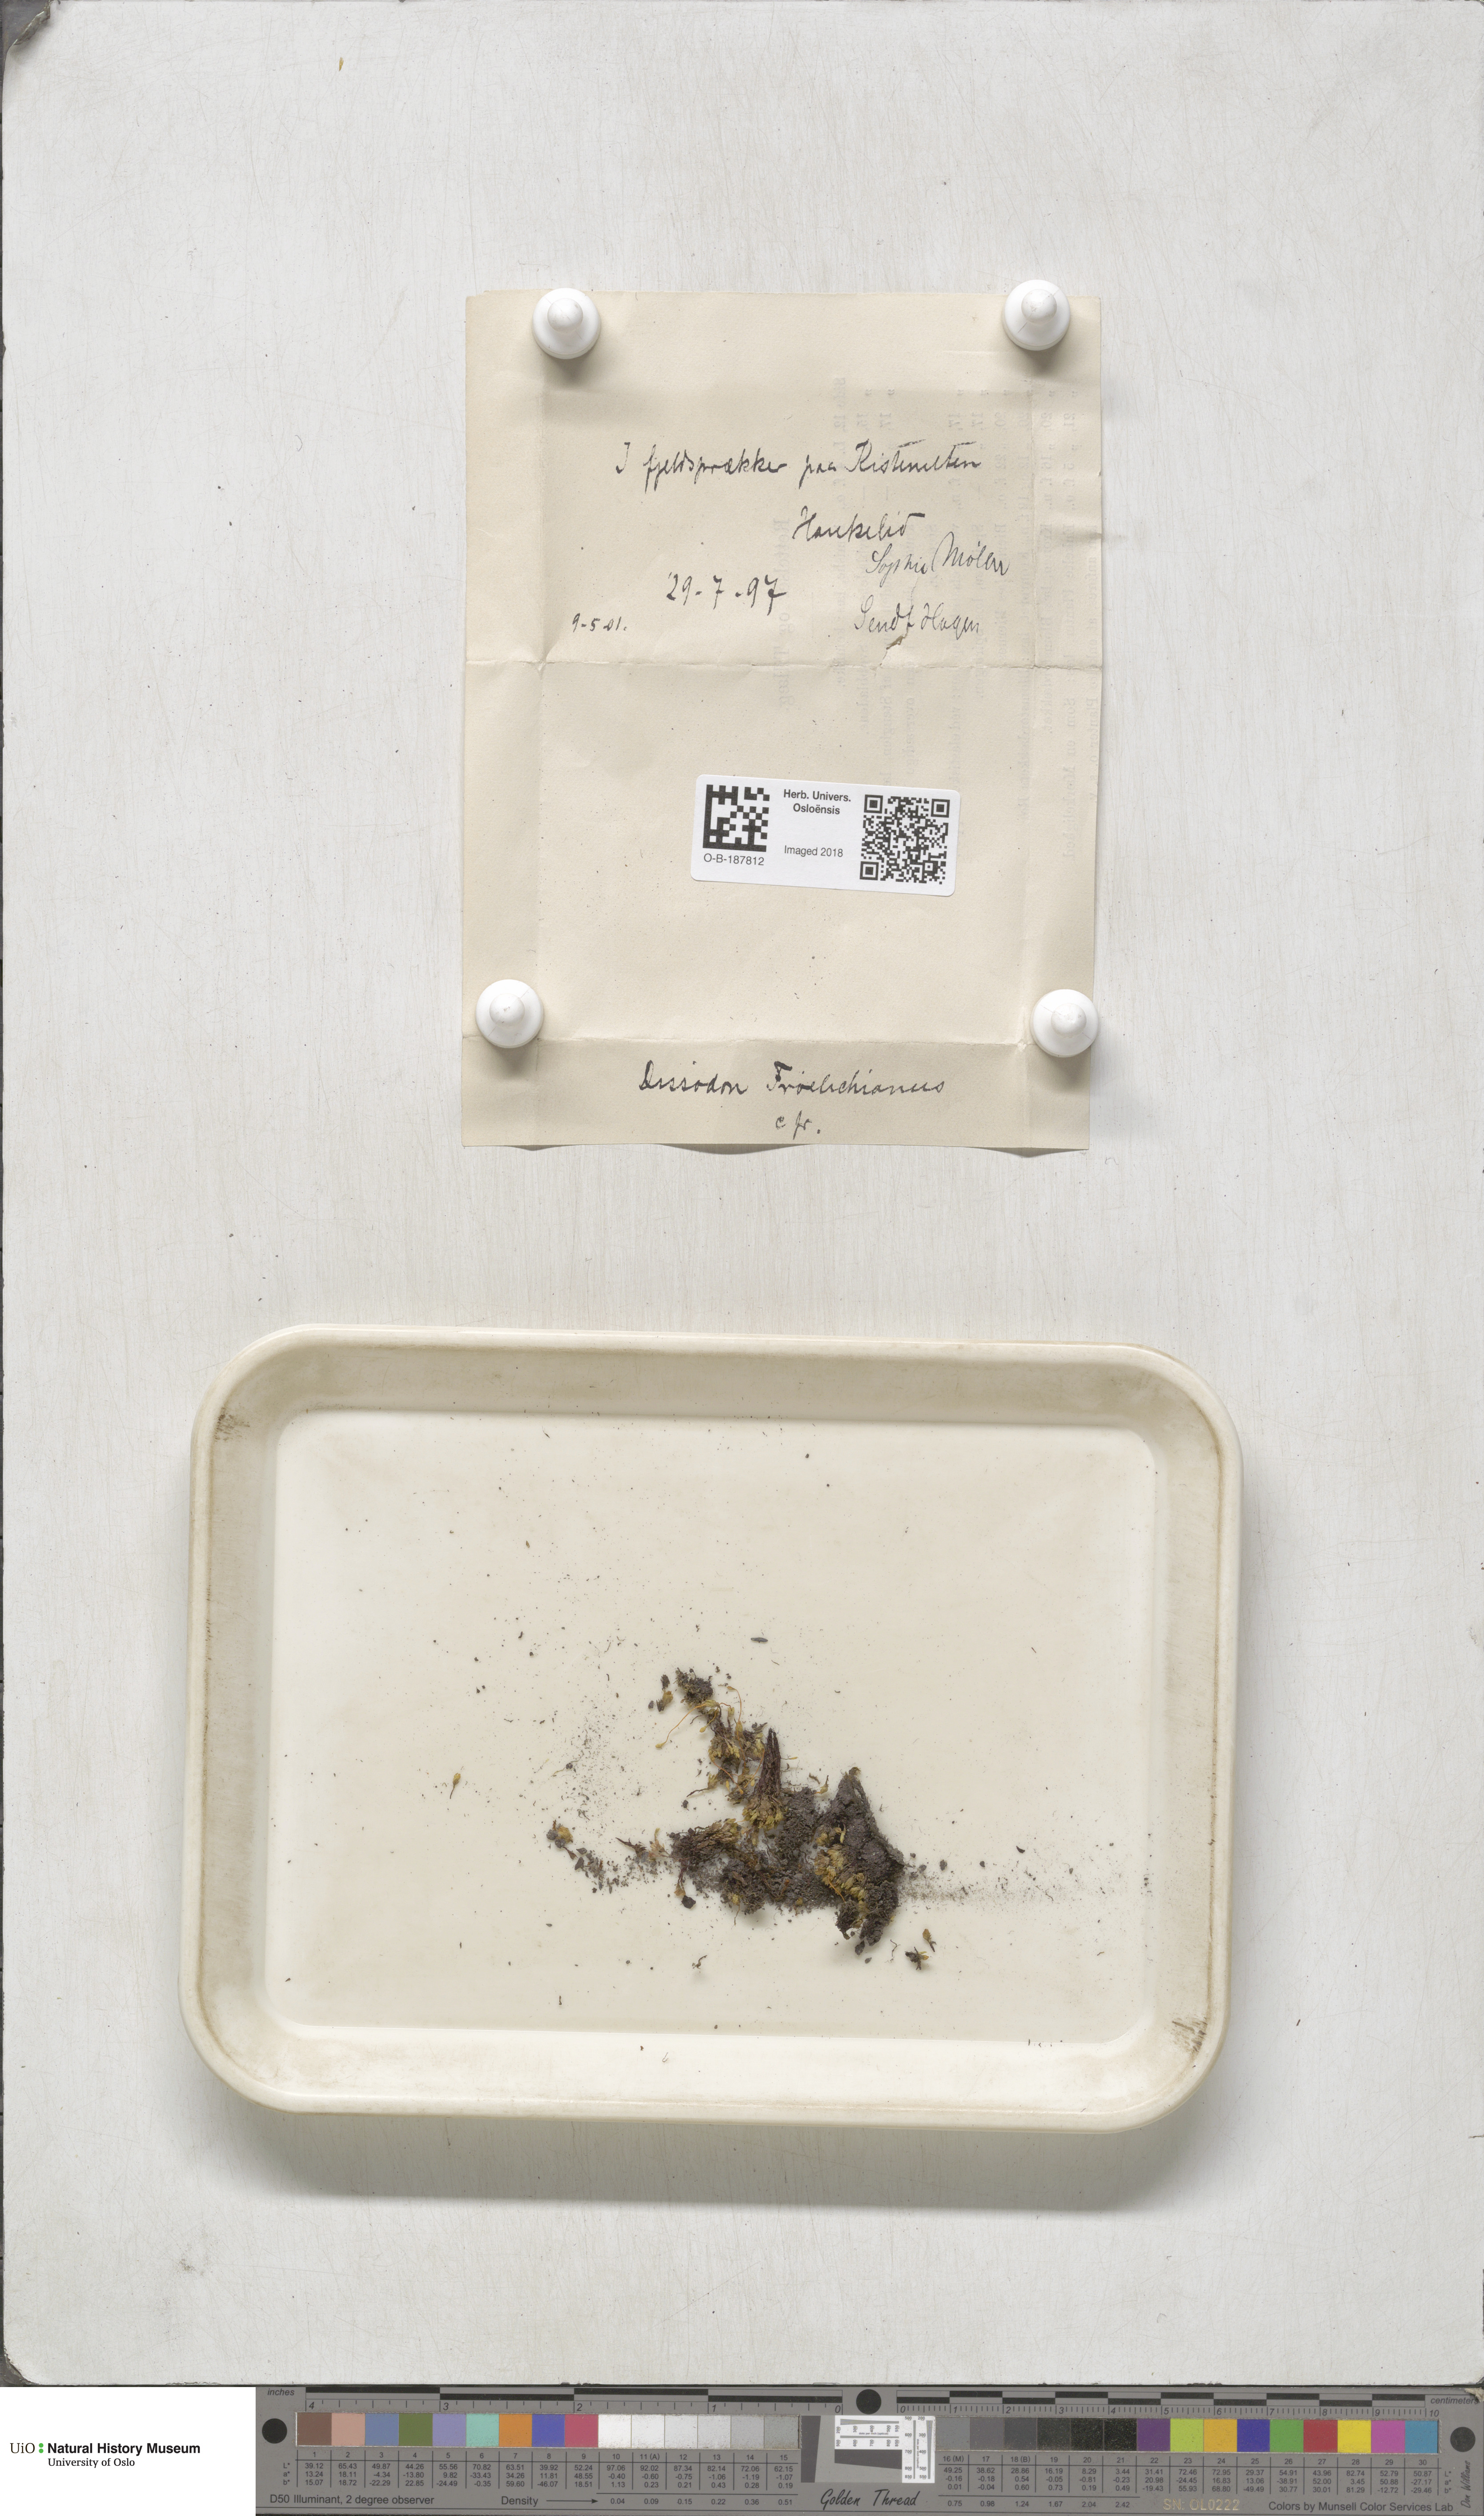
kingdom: Plantae
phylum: Bryophyta
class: Bryopsida
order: Splachnales
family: Splachnaceae
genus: Tayloria
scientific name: Tayloria froelichiana
